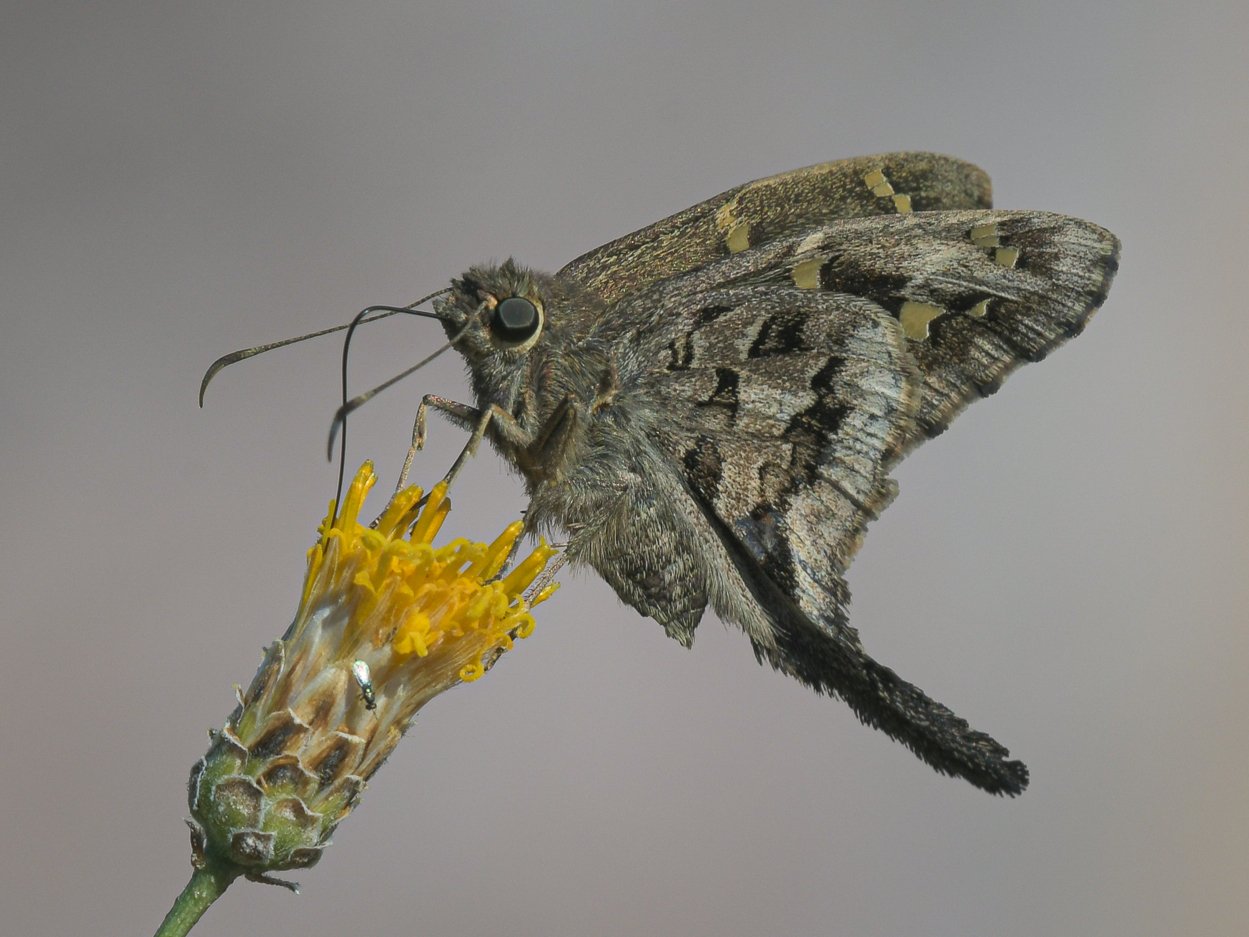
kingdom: Animalia
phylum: Arthropoda
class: Insecta
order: Lepidoptera
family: Hesperiidae
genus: Urbanus
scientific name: Urbanus dorantes
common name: Dorantes Longtail
